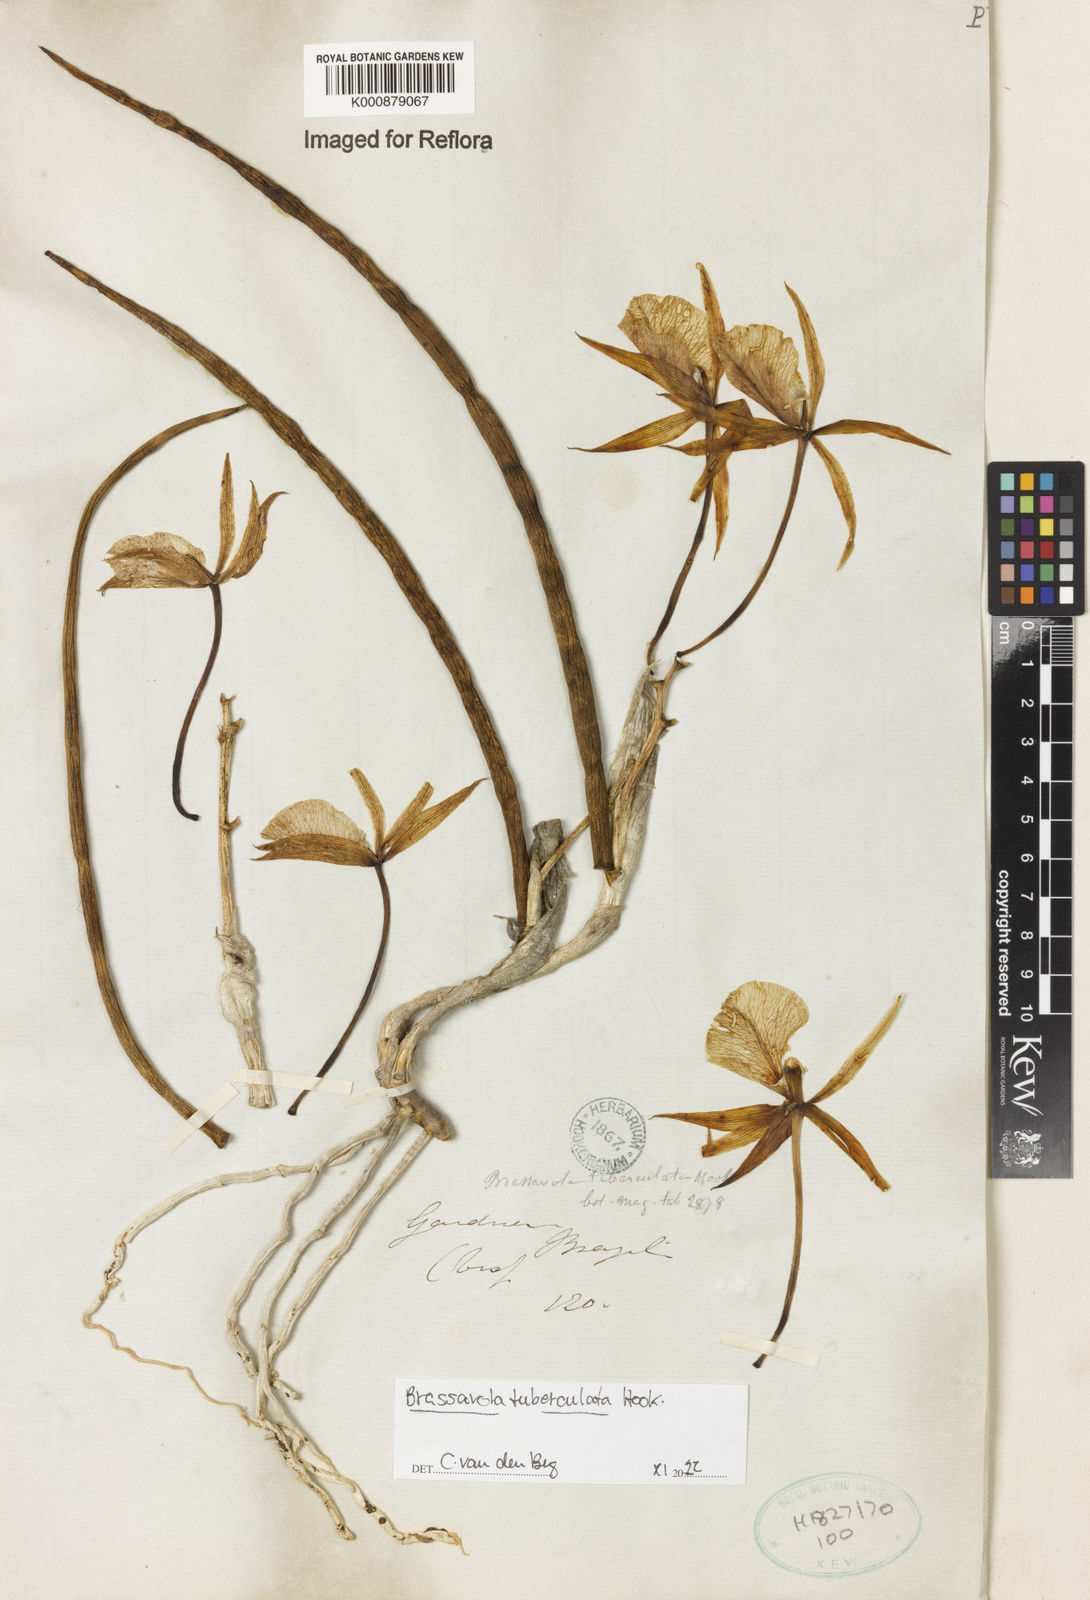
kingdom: Plantae
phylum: Tracheophyta
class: Liliopsida
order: Asparagales
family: Orchidaceae
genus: Brassavola
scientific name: Brassavola tuberculata
